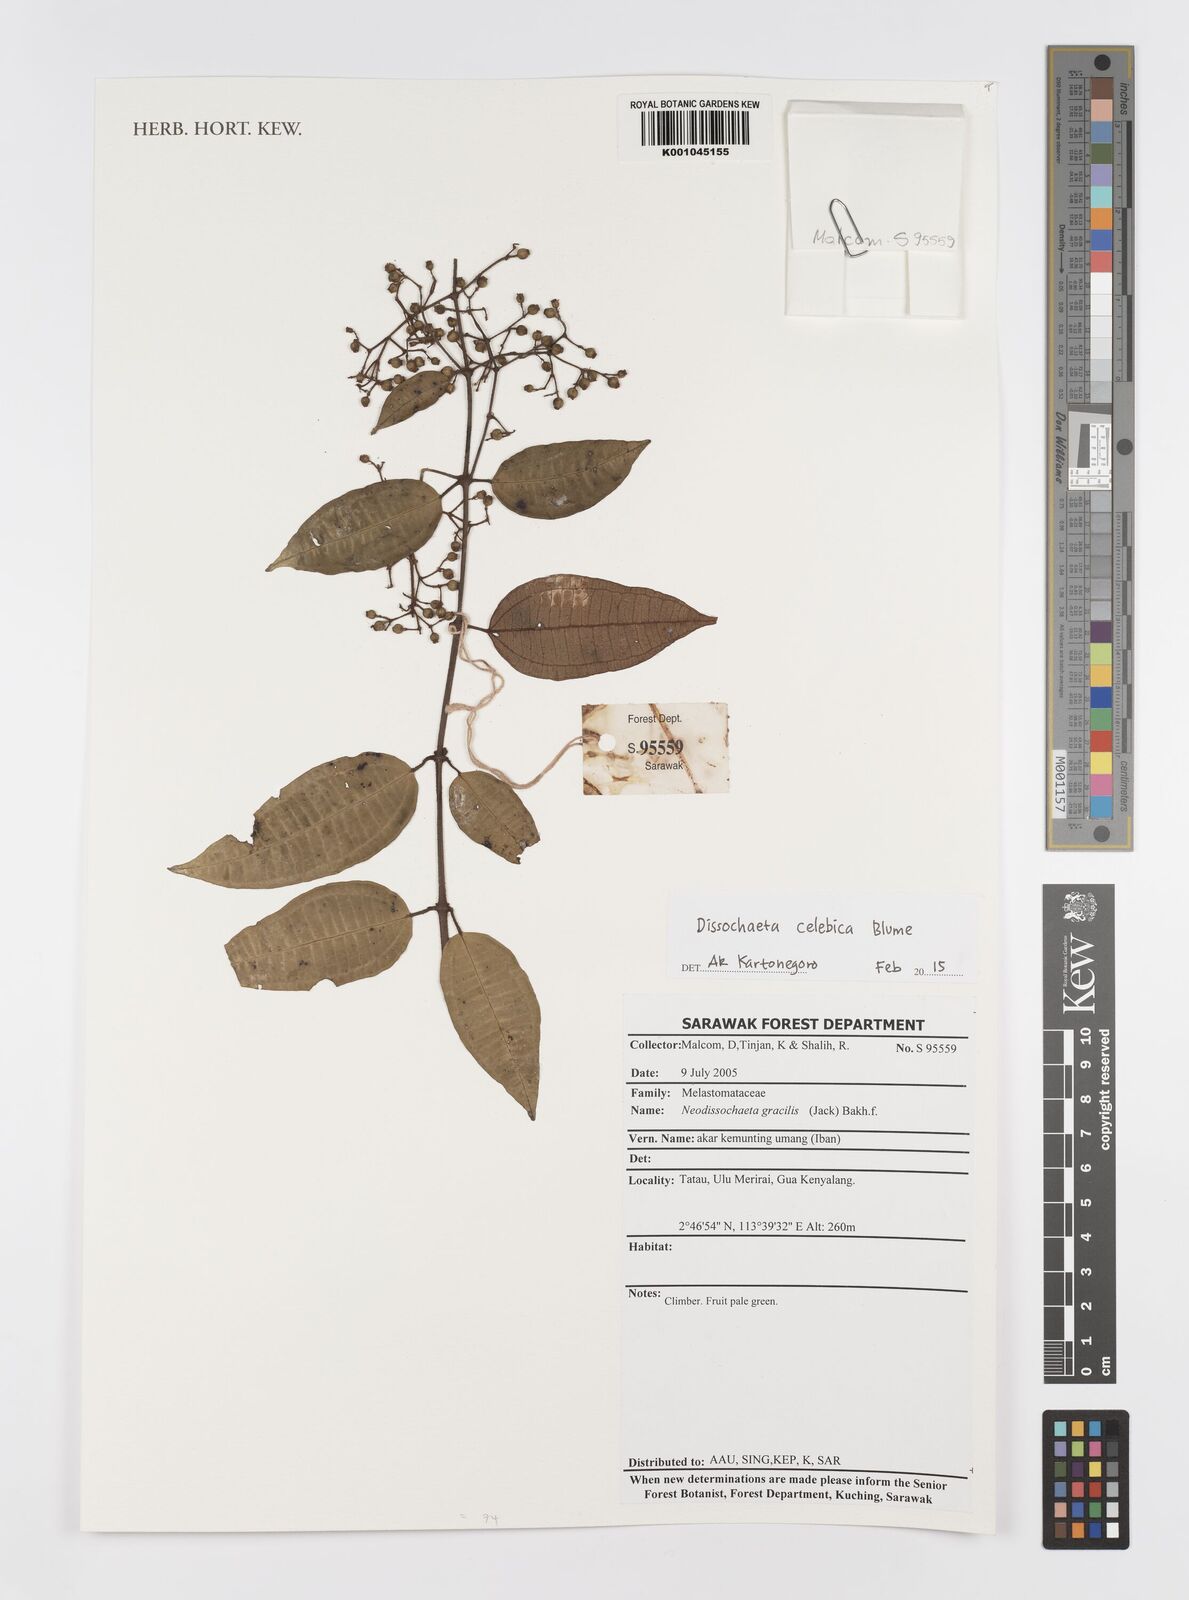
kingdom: Plantae
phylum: Tracheophyta
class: Magnoliopsida
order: Myrtales
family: Melastomataceae
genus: Dissochaeta
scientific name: Dissochaeta celebica
